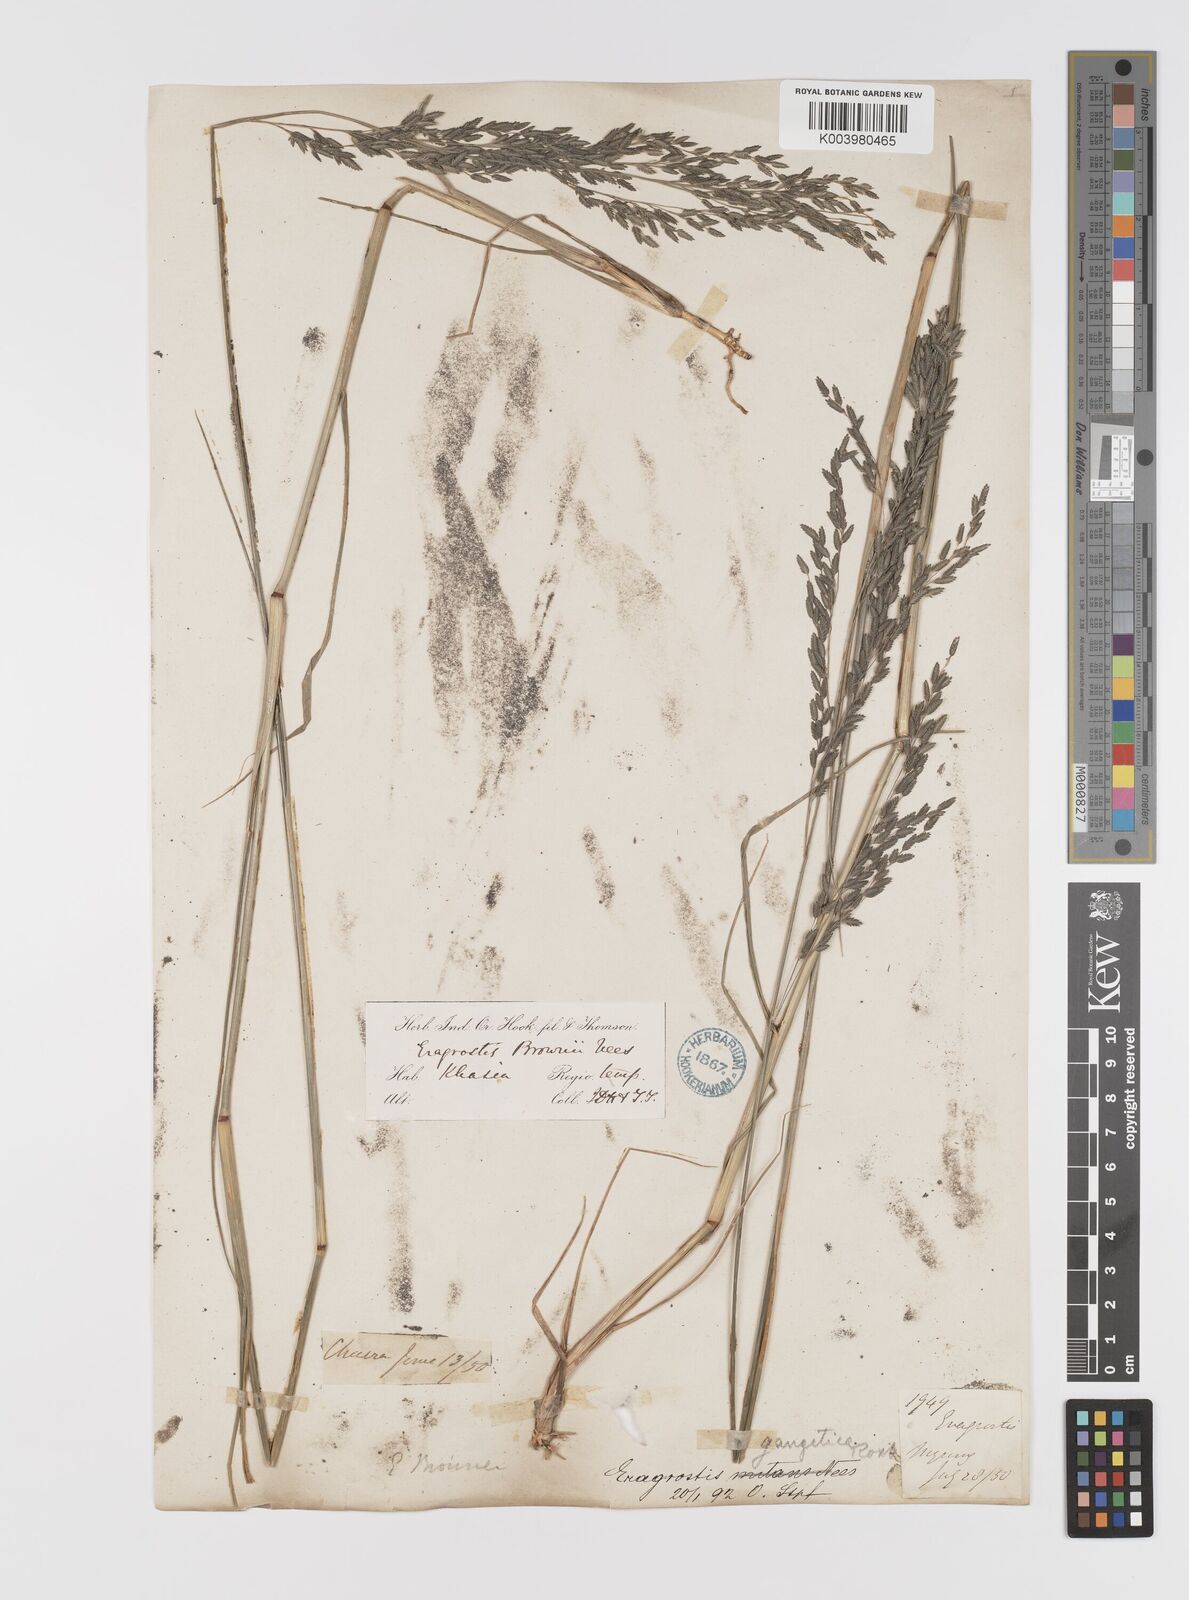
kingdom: Plantae
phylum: Tracheophyta
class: Liliopsida
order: Poales
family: Poaceae
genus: Eragrostis
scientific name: Eragrostis gangetica
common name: Slimflower lovegrass
